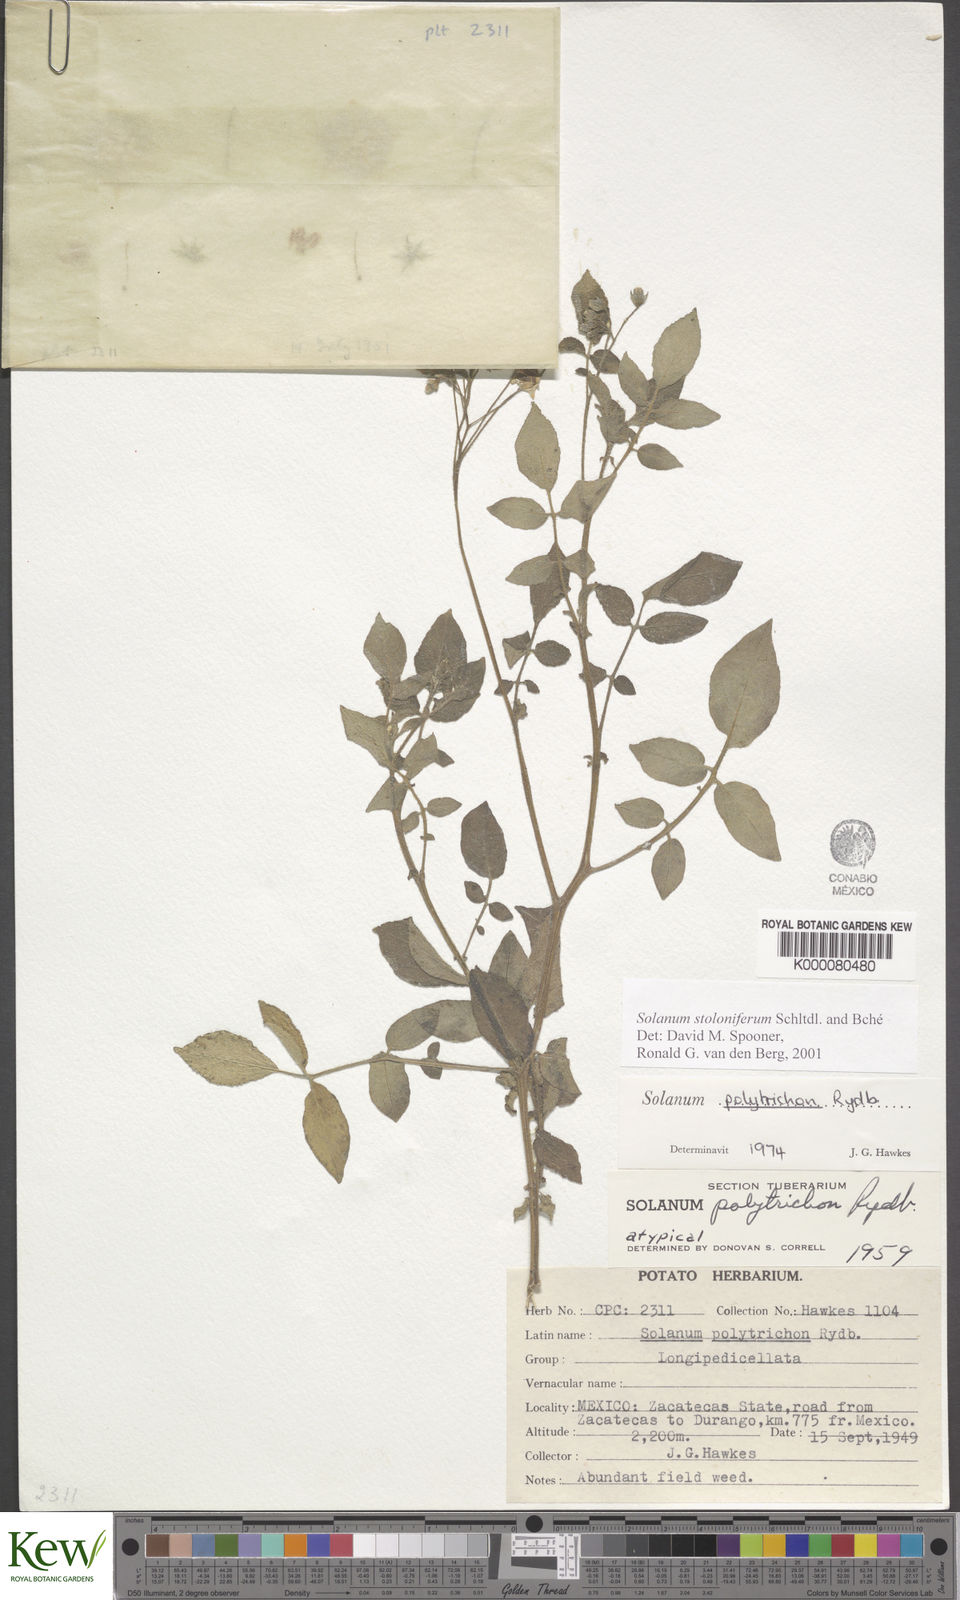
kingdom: Plantae
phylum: Tracheophyta
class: Magnoliopsida
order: Solanales
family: Solanaceae
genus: Solanum
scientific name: Solanum stoloniferum
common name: Fendler's nighshade
